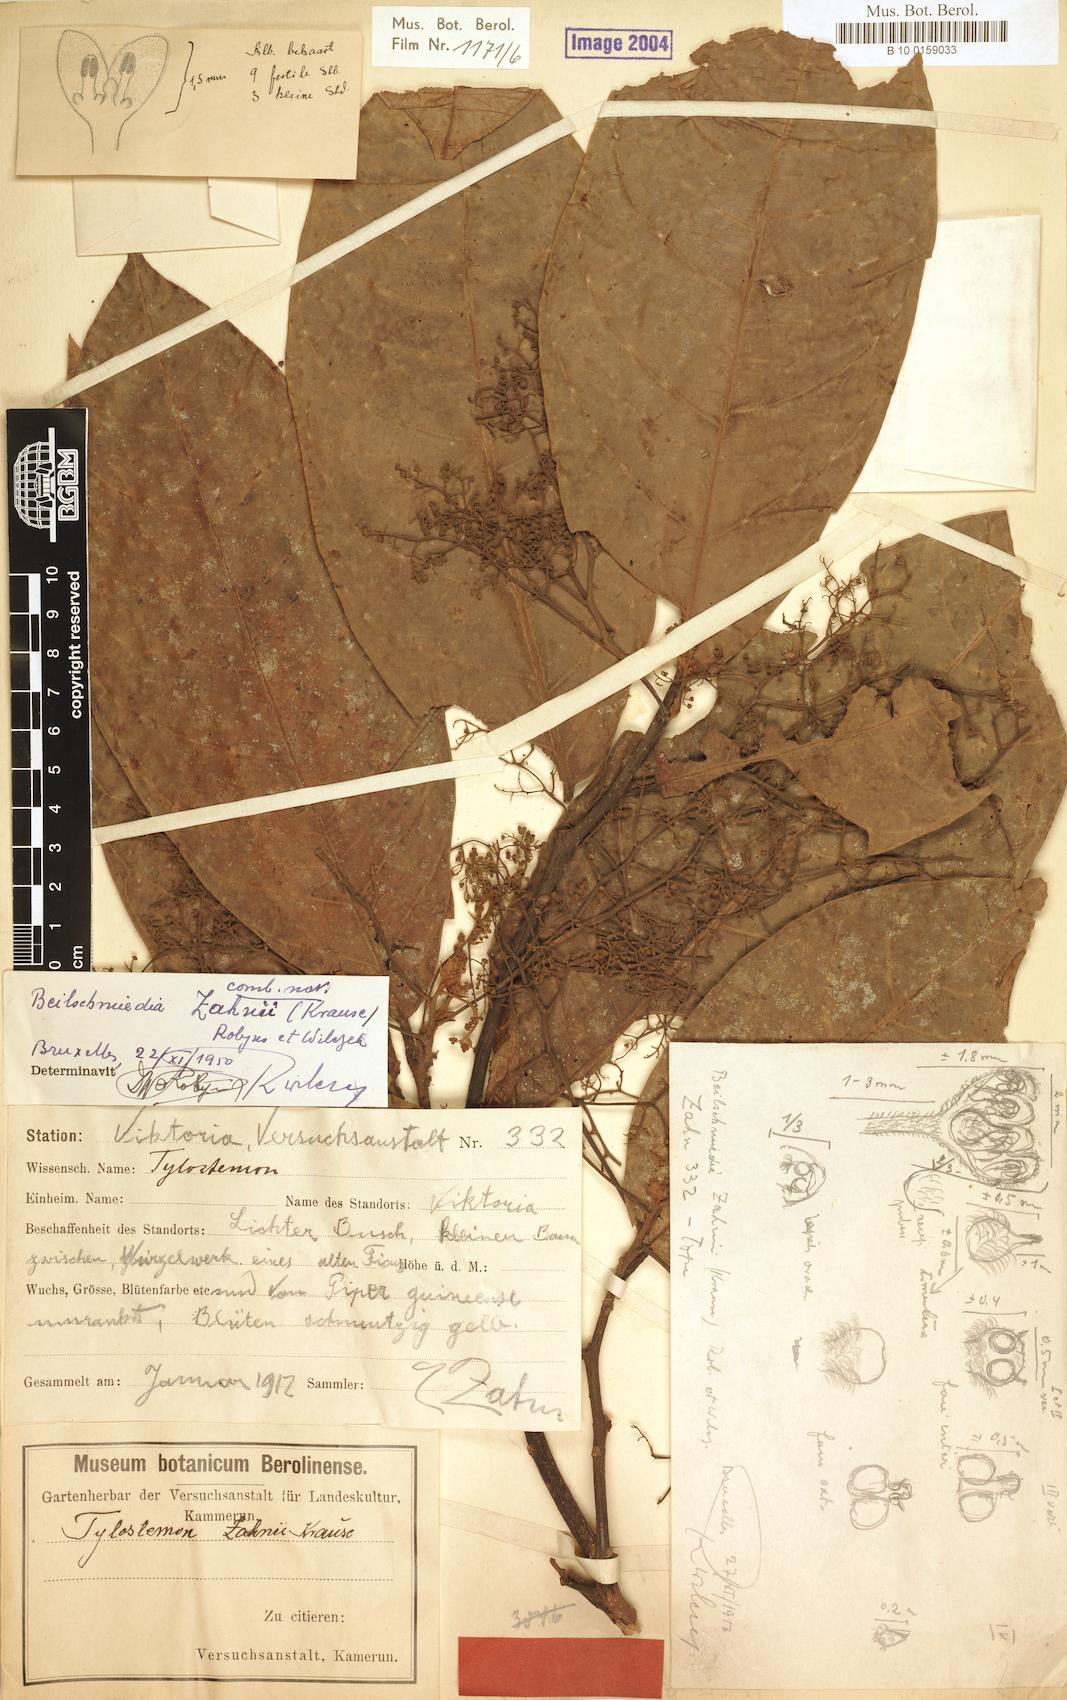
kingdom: Plantae
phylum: Tracheophyta
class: Magnoliopsida
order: Laurales
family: Lauraceae
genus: Beilschmiedia
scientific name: Beilschmiedia zahnii
